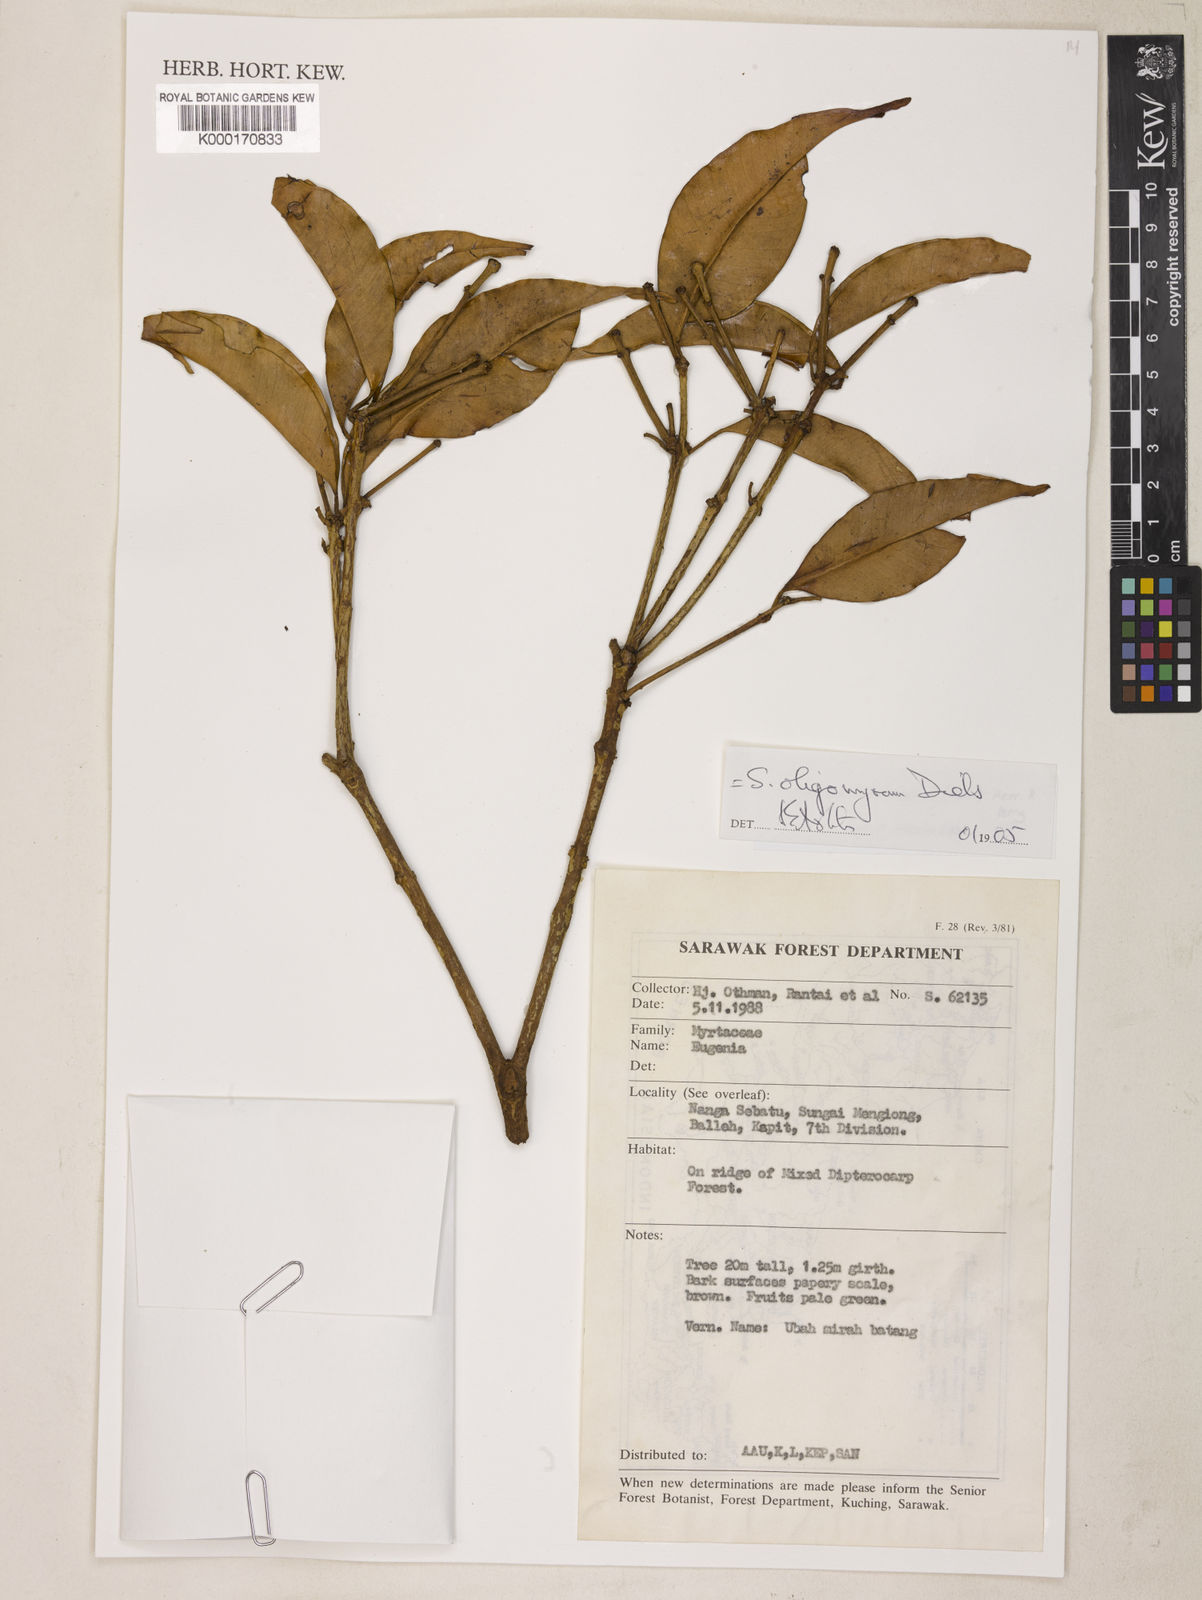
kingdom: Plantae
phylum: Tracheophyta
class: Magnoliopsida
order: Myrtales
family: Myrtaceae
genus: Syzygium
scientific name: Syzygium oligomyrum
